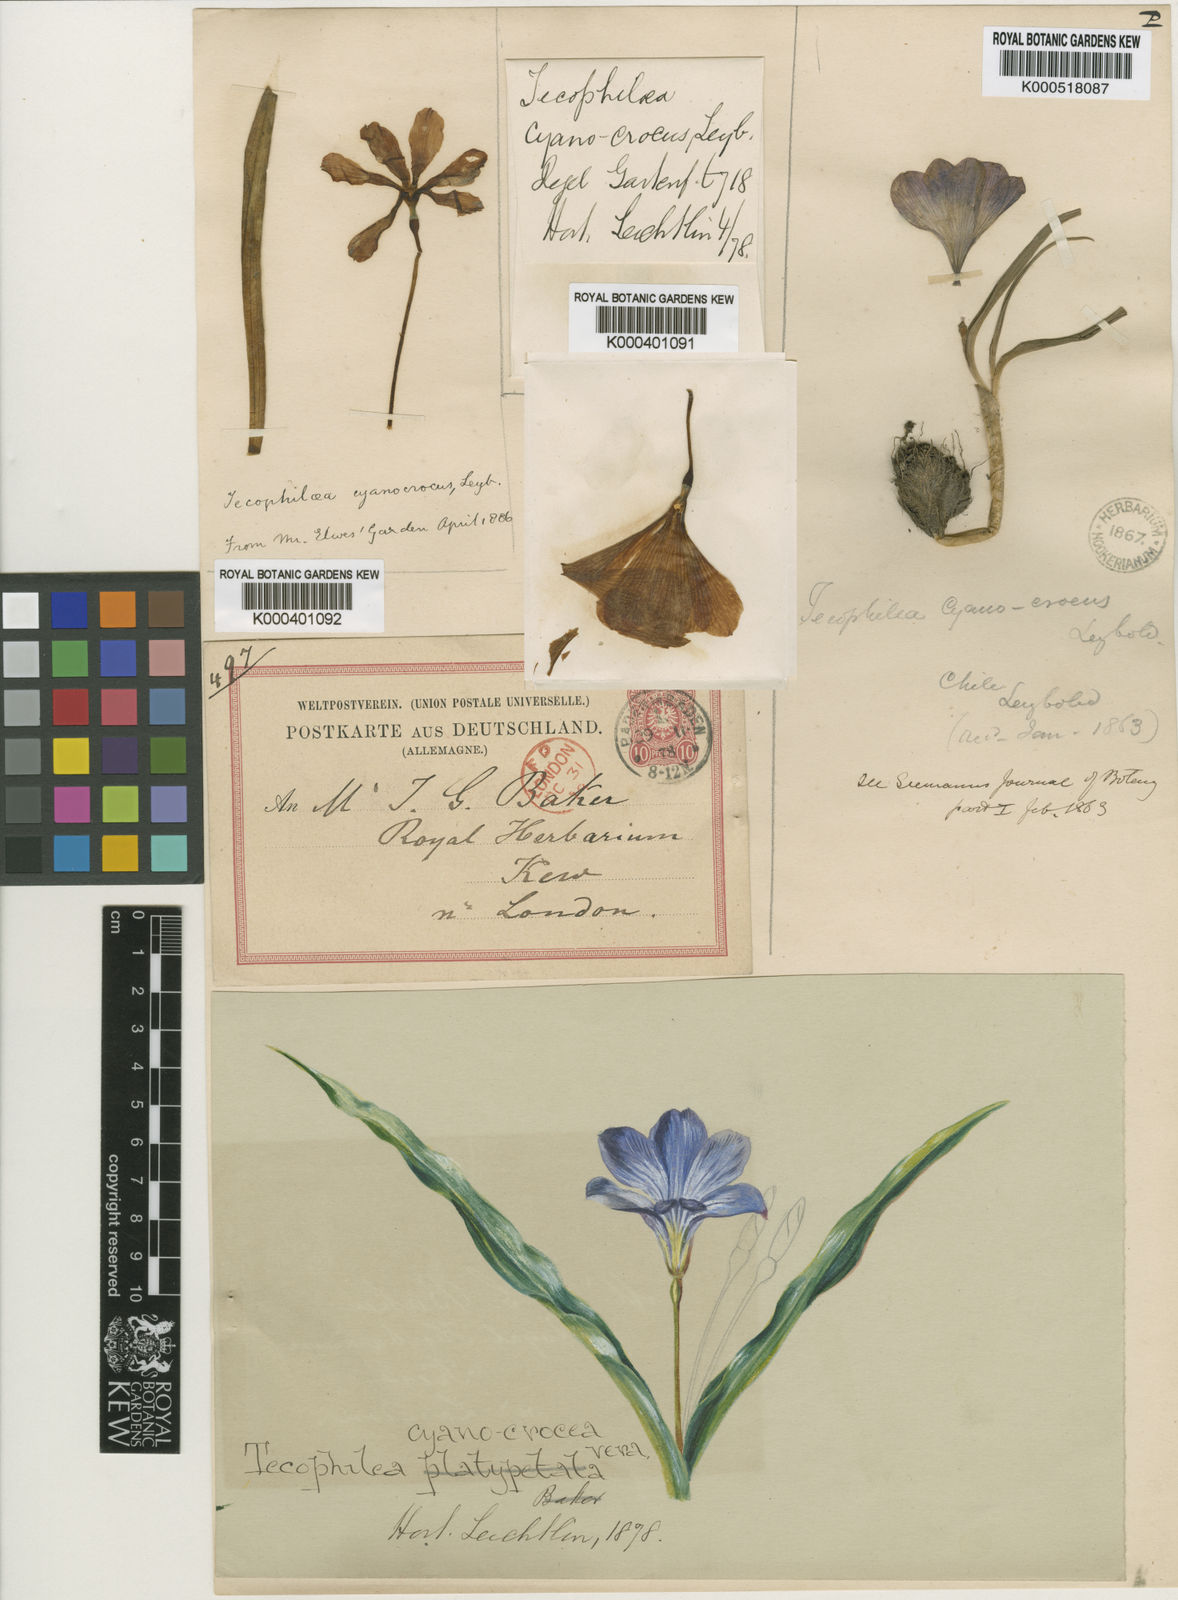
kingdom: Plantae
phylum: Tracheophyta
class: Liliopsida
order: Asparagales
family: Tecophilaeaceae
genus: Tecophilaea
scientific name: Tecophilaea cyanocrocus
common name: Chilean blue-crocus
